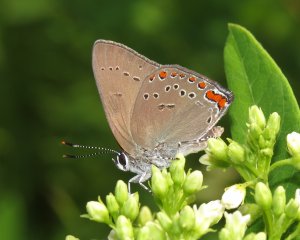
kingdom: Animalia
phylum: Arthropoda
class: Insecta
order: Lepidoptera
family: Lycaenidae
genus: Harkenclenus
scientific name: Harkenclenus titus
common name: Coral Hairstreak
